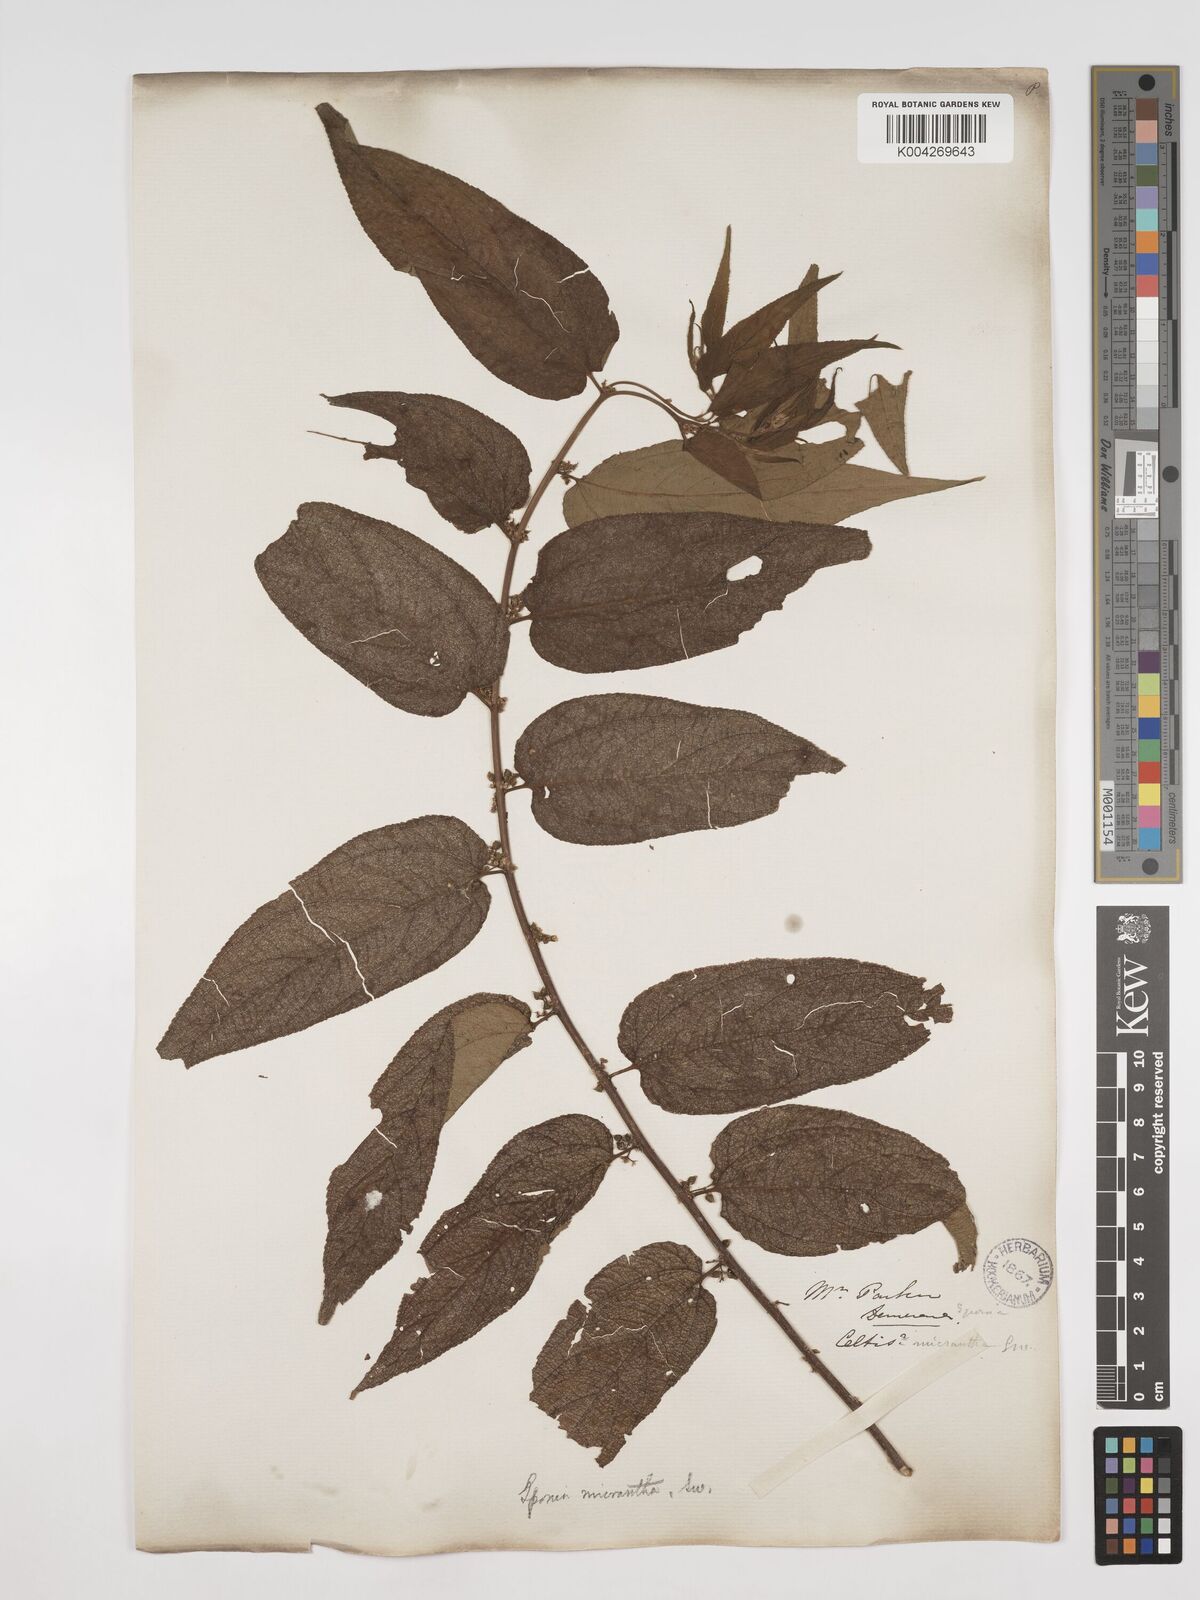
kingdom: Plantae
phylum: Tracheophyta
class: Magnoliopsida
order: Rosales
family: Cannabaceae
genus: Trema
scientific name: Trema micranthum
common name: Jamaican nettletree
